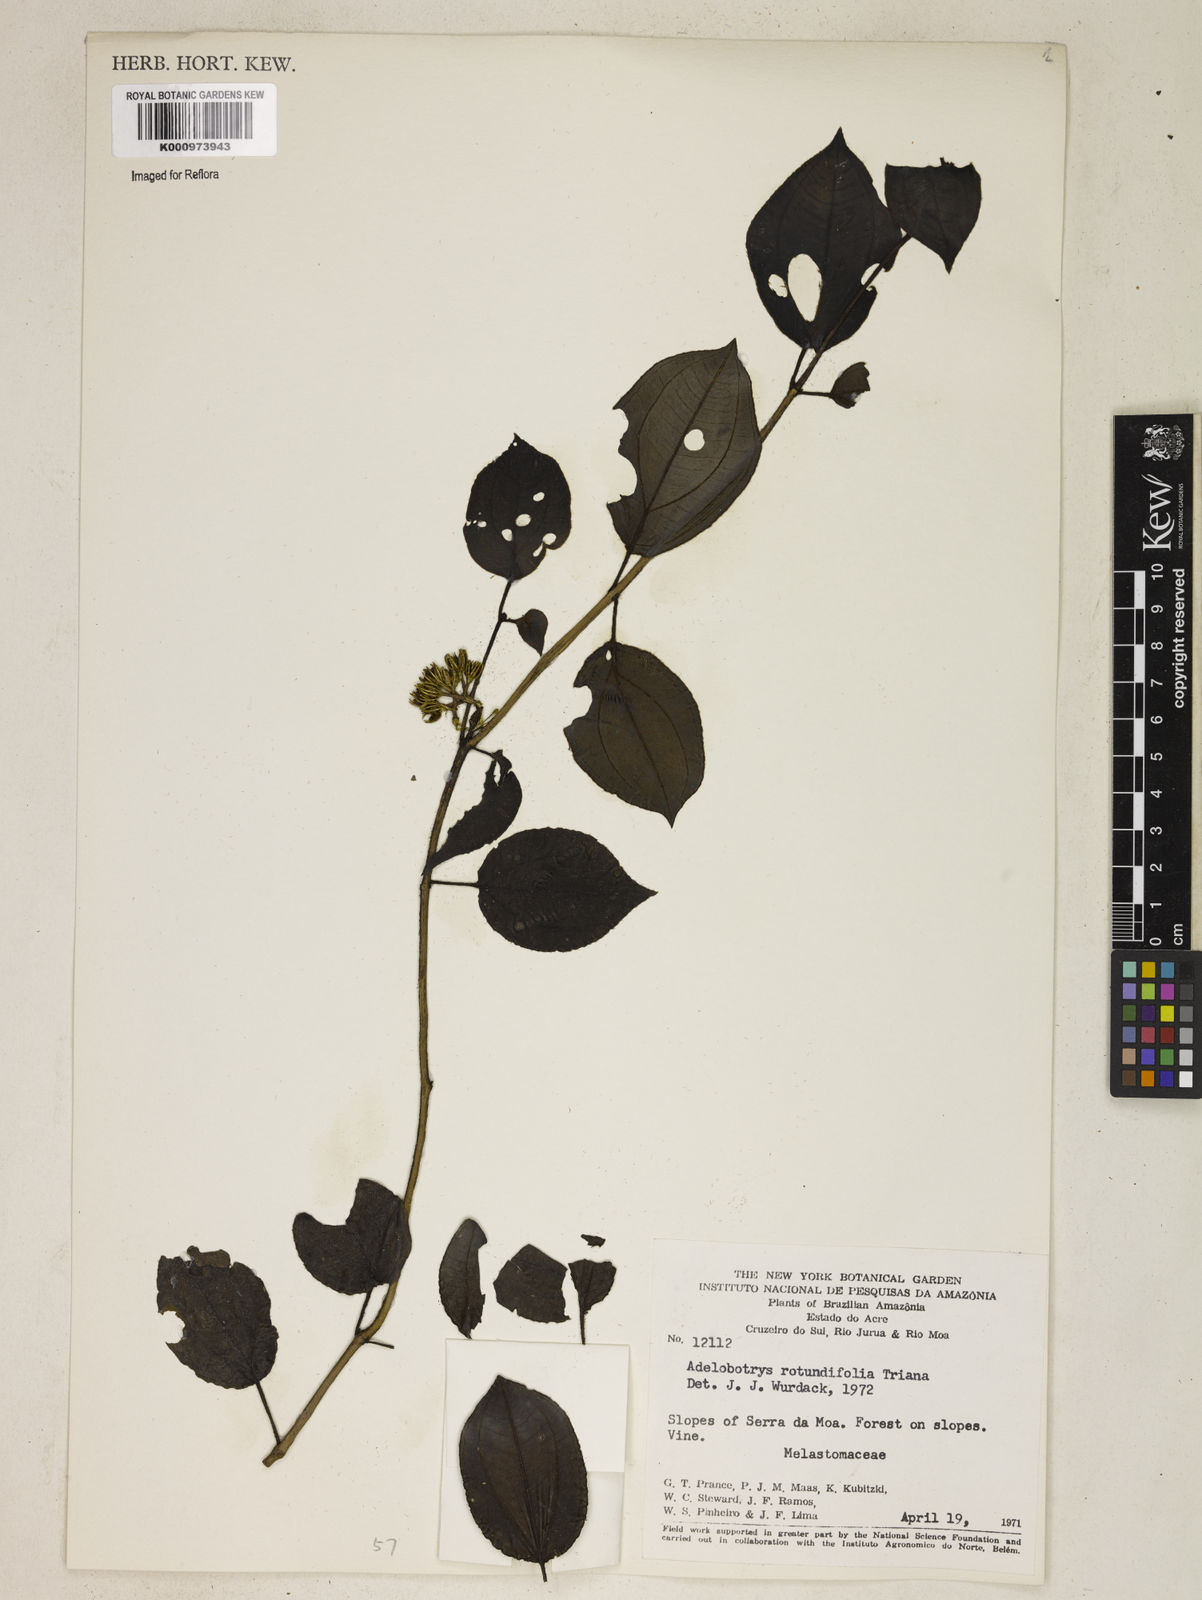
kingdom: Plantae
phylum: Tracheophyta
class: Magnoliopsida
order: Myrtales
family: Melastomataceae
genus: Adelobotrys
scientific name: Adelobotrys rotundifolius
